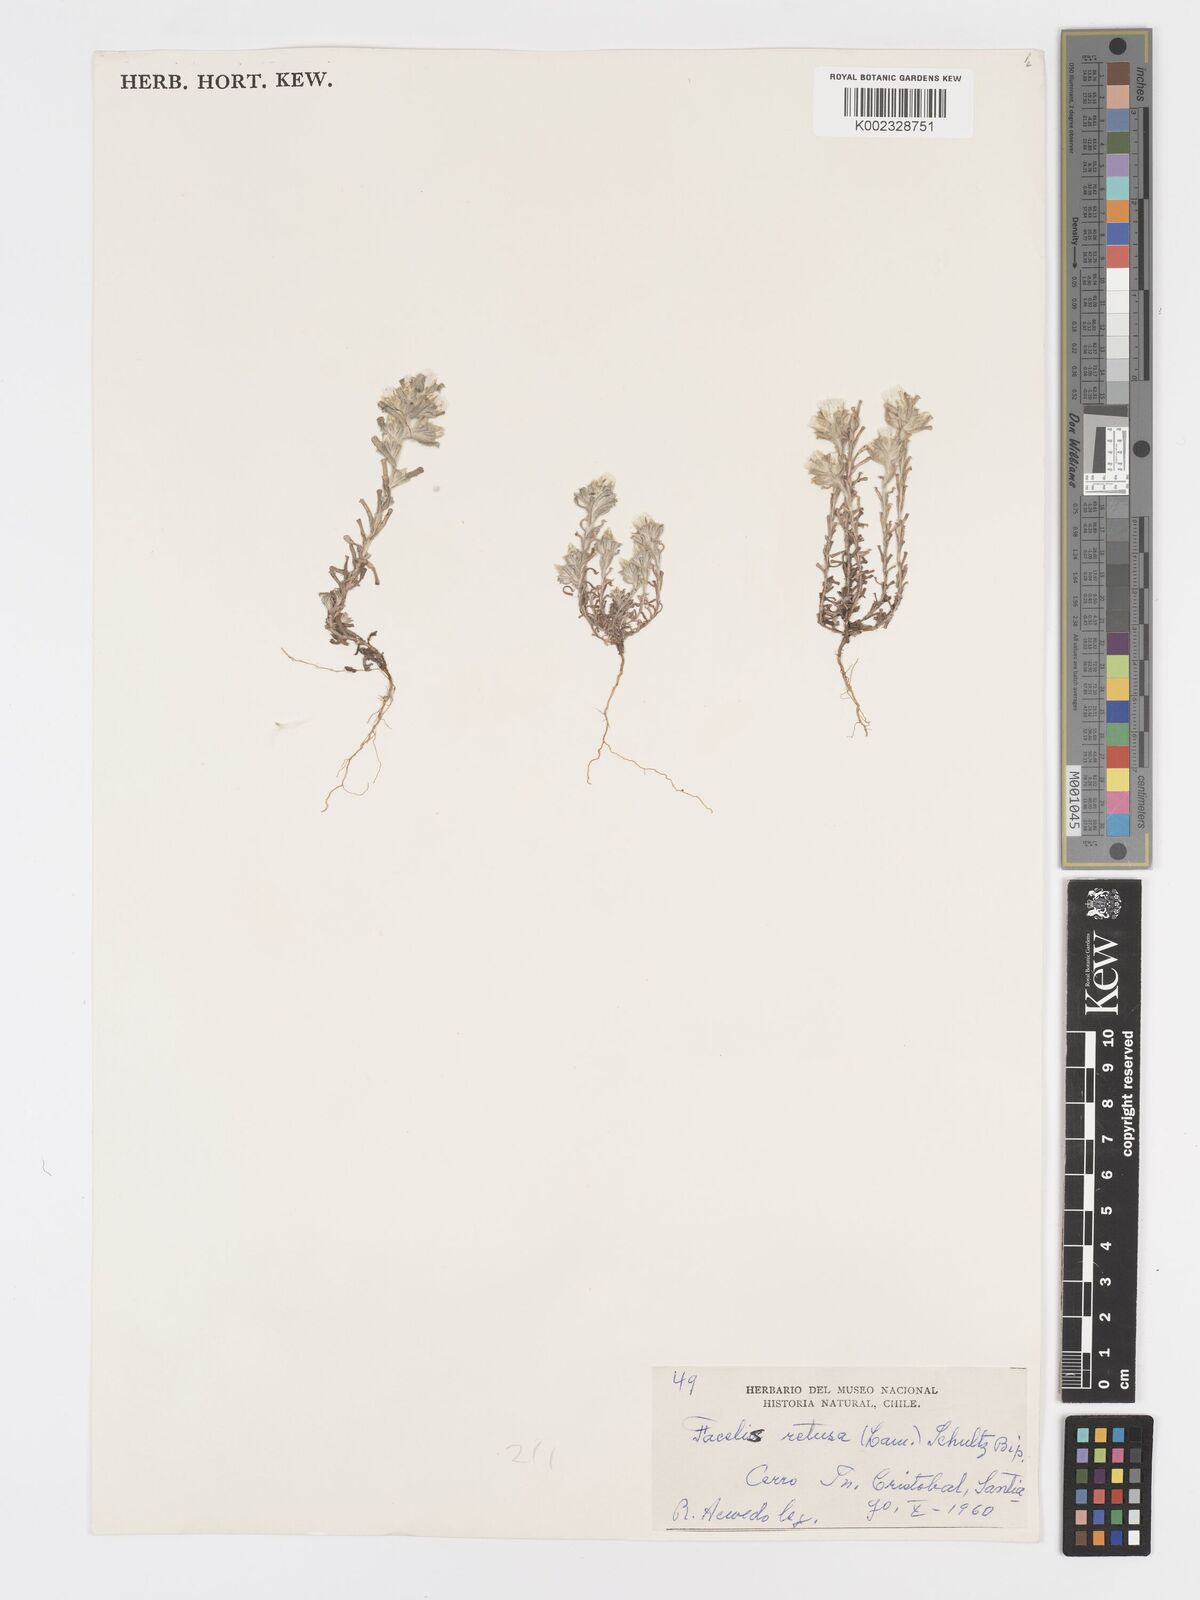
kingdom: Plantae
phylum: Tracheophyta
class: Magnoliopsida
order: Asterales
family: Asteraceae
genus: Facelis
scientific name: Facelis retusa
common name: Annual trampweed
